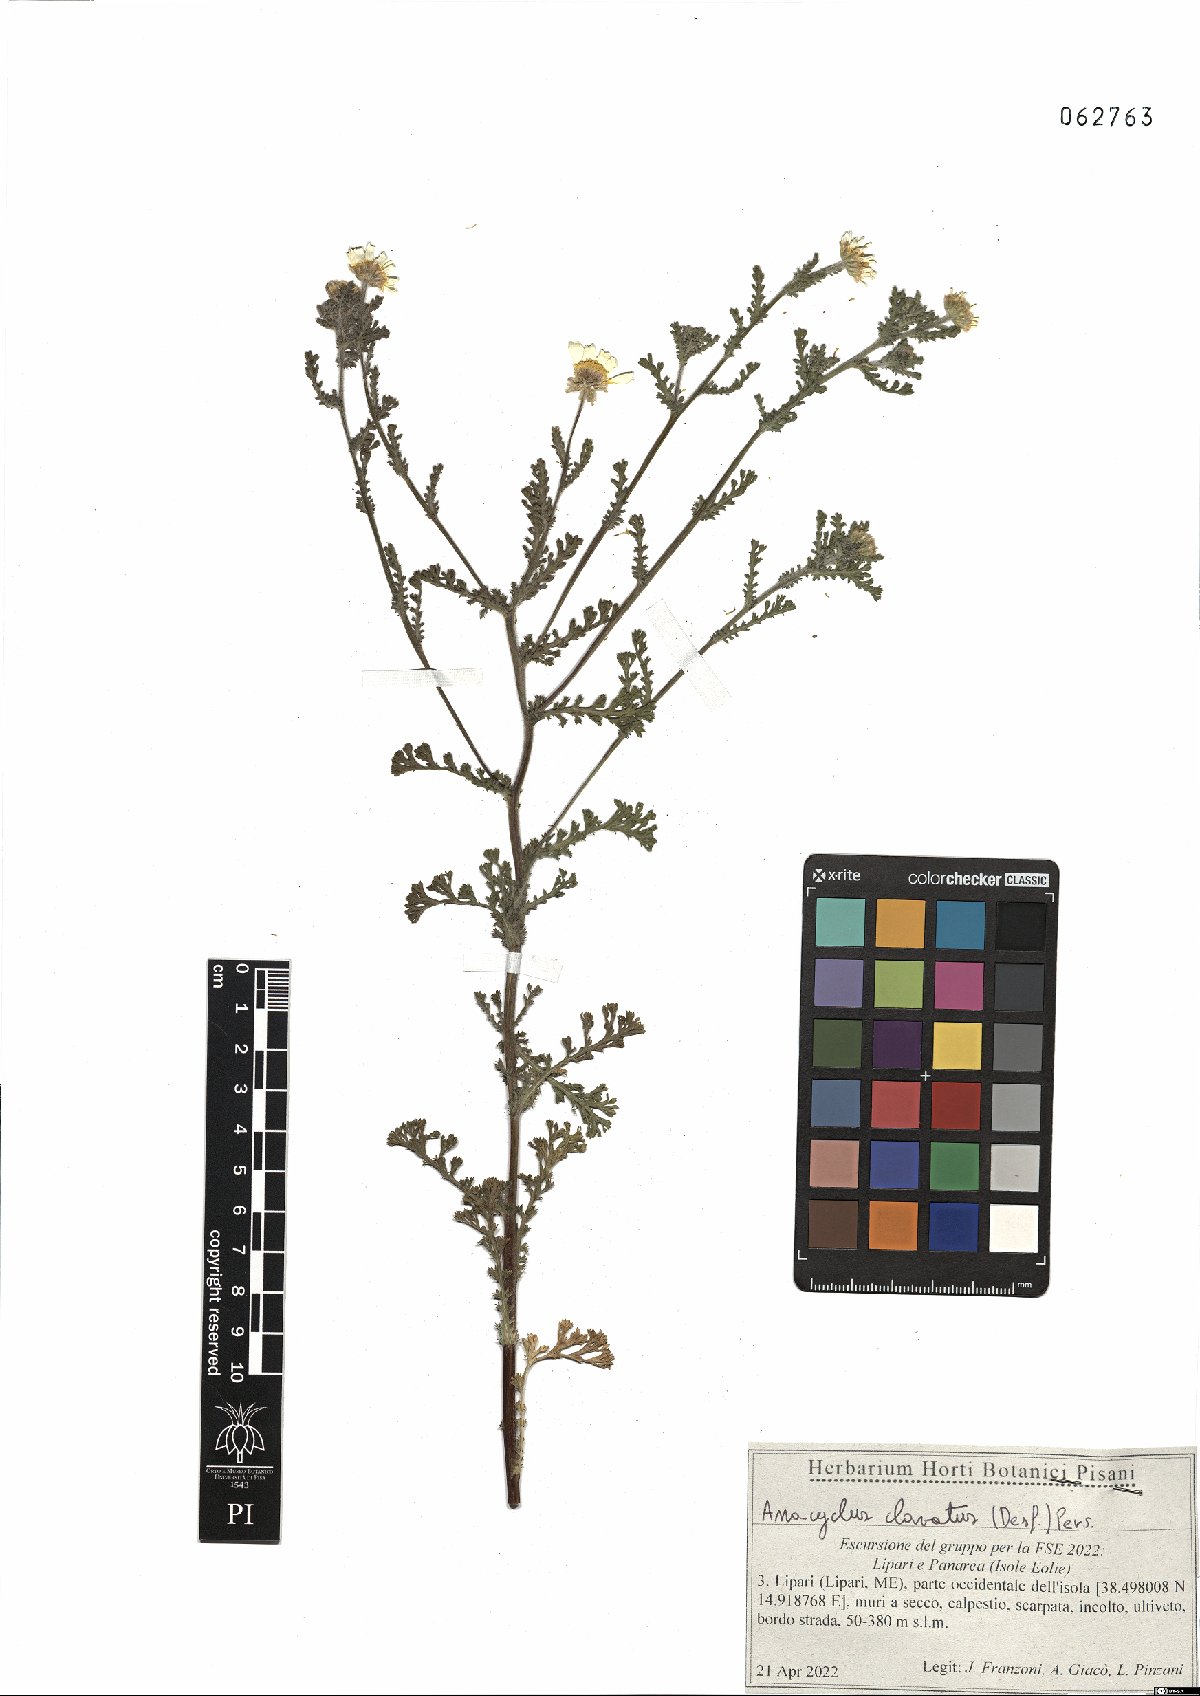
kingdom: Plantae
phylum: Tracheophyta
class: Magnoliopsida
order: Asterales
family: Asteraceae
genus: Anacyclus
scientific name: Anacyclus clavatus
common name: Whitebuttons
